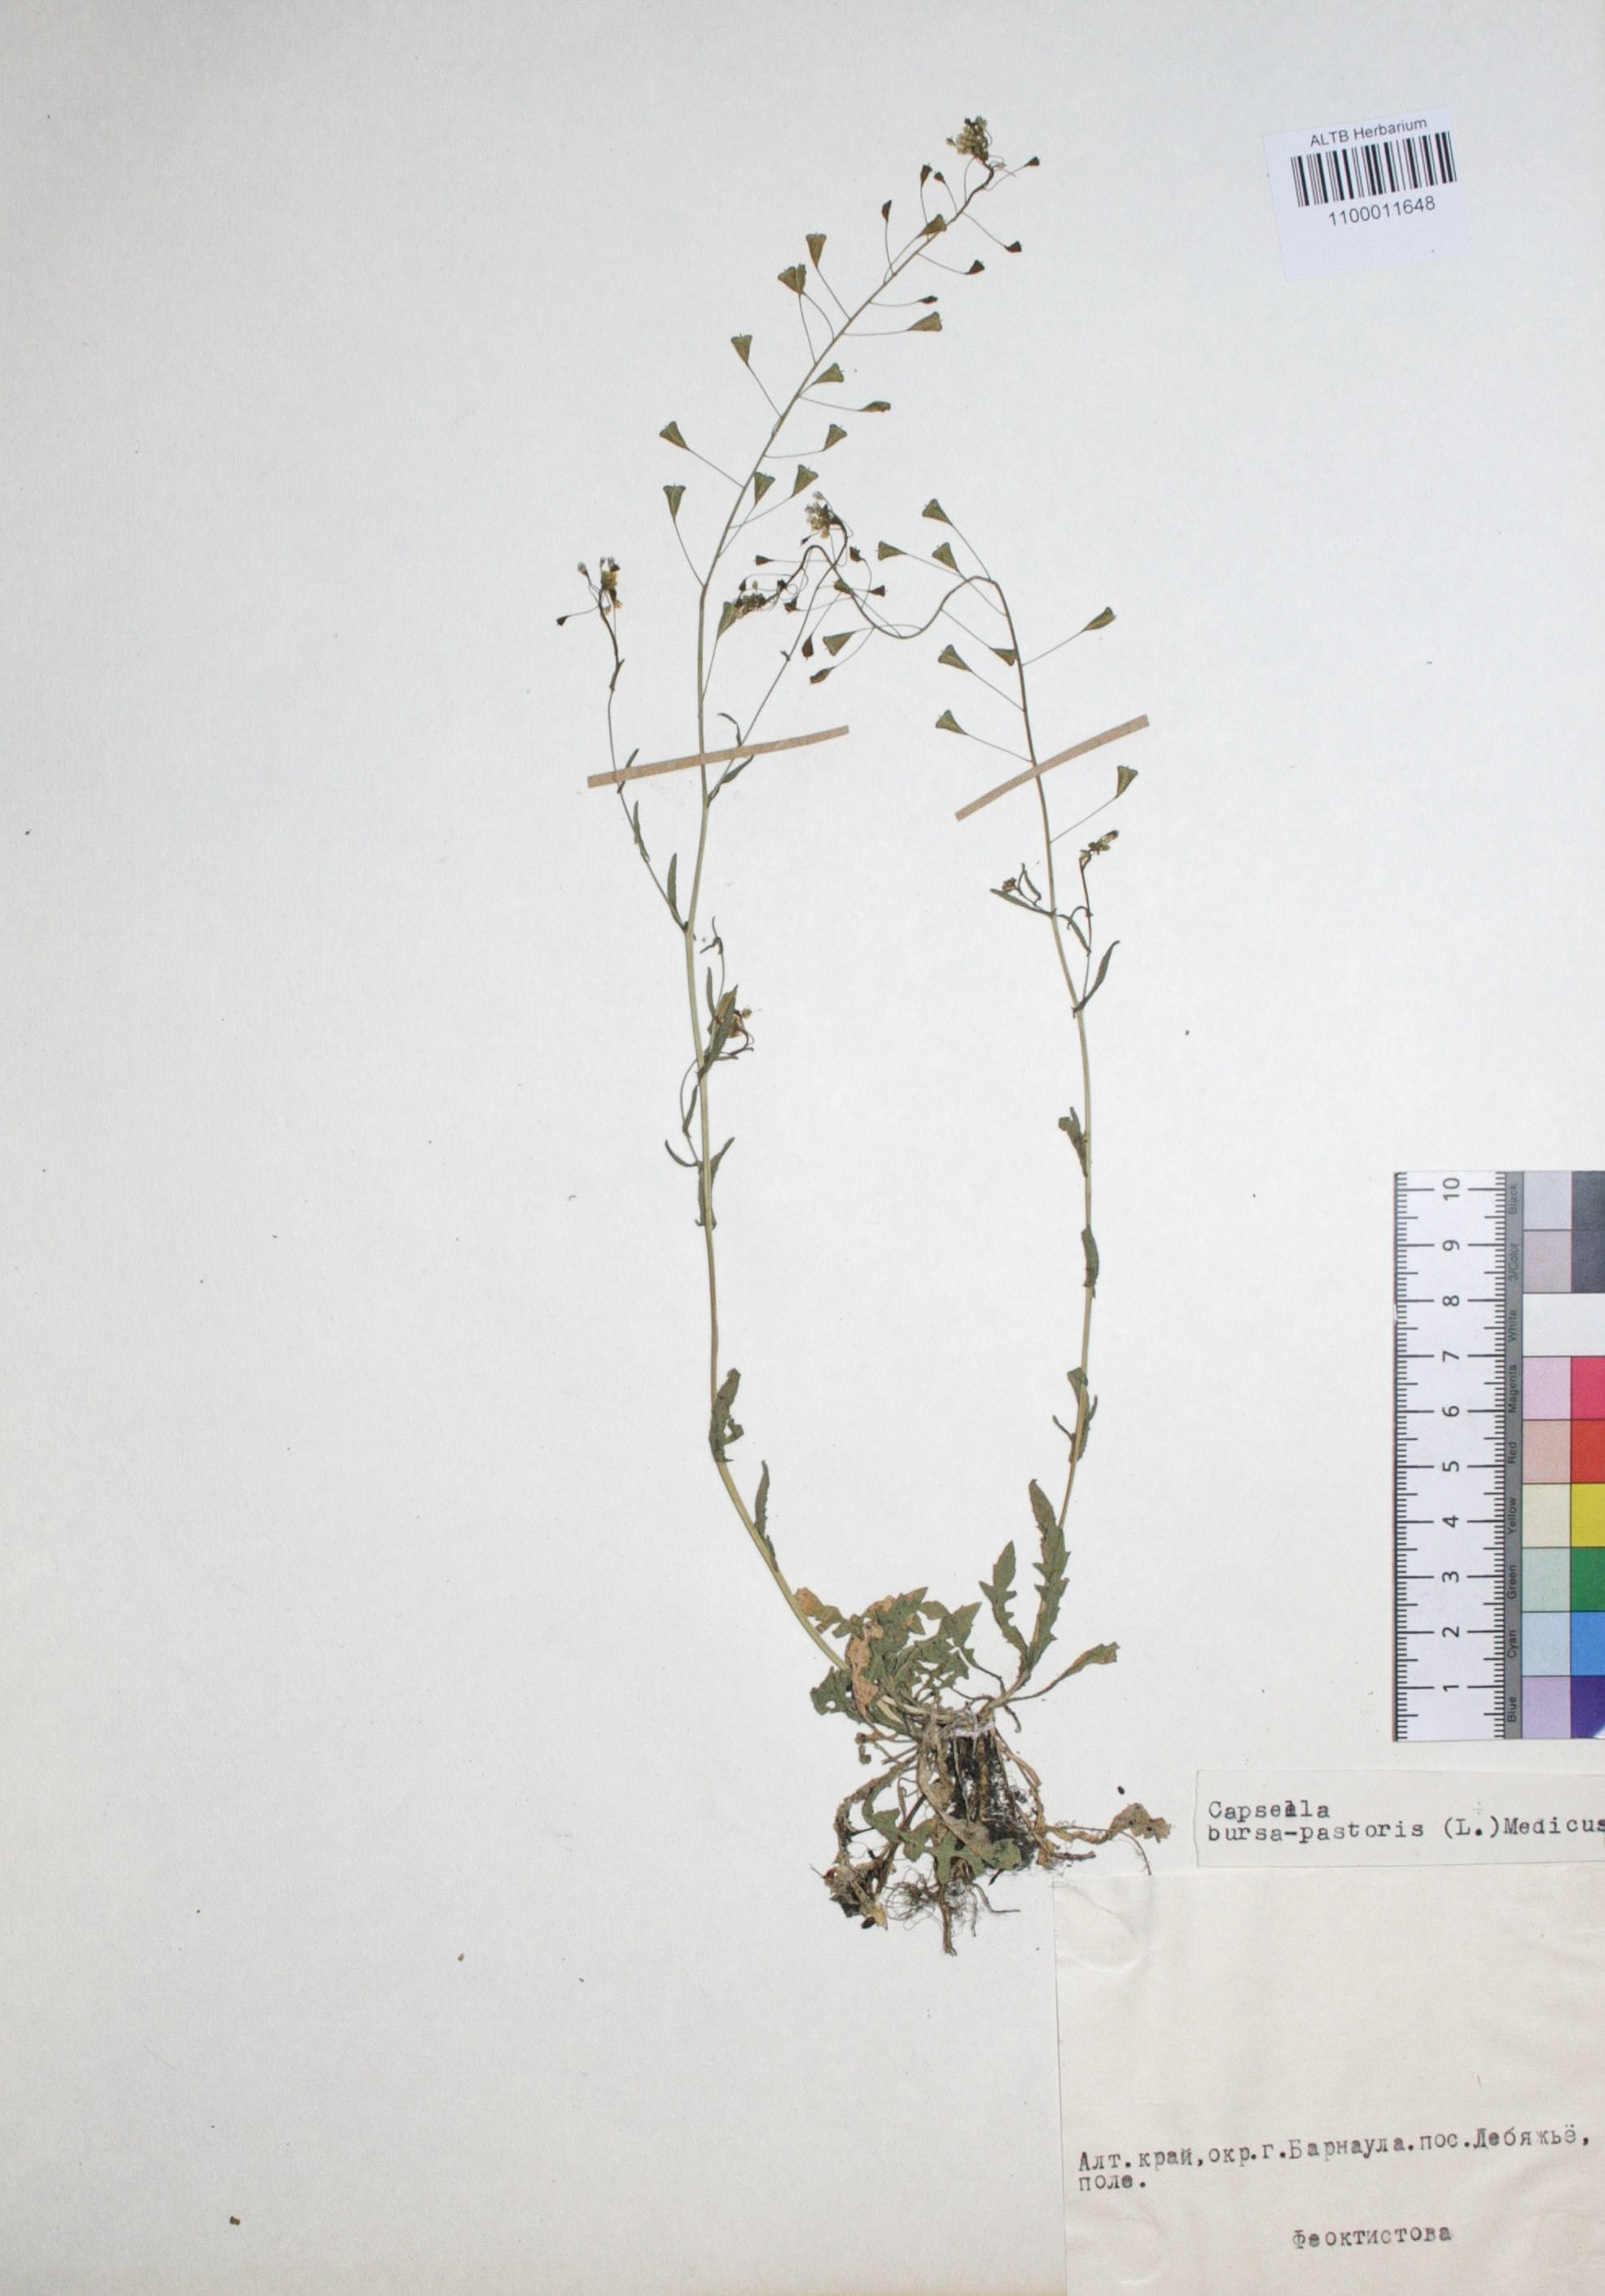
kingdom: Plantae
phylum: Tracheophyta
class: Magnoliopsida
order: Brassicales
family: Brassicaceae
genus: Capsella
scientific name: Capsella bursa-pastoris
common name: Shepherd's purse
